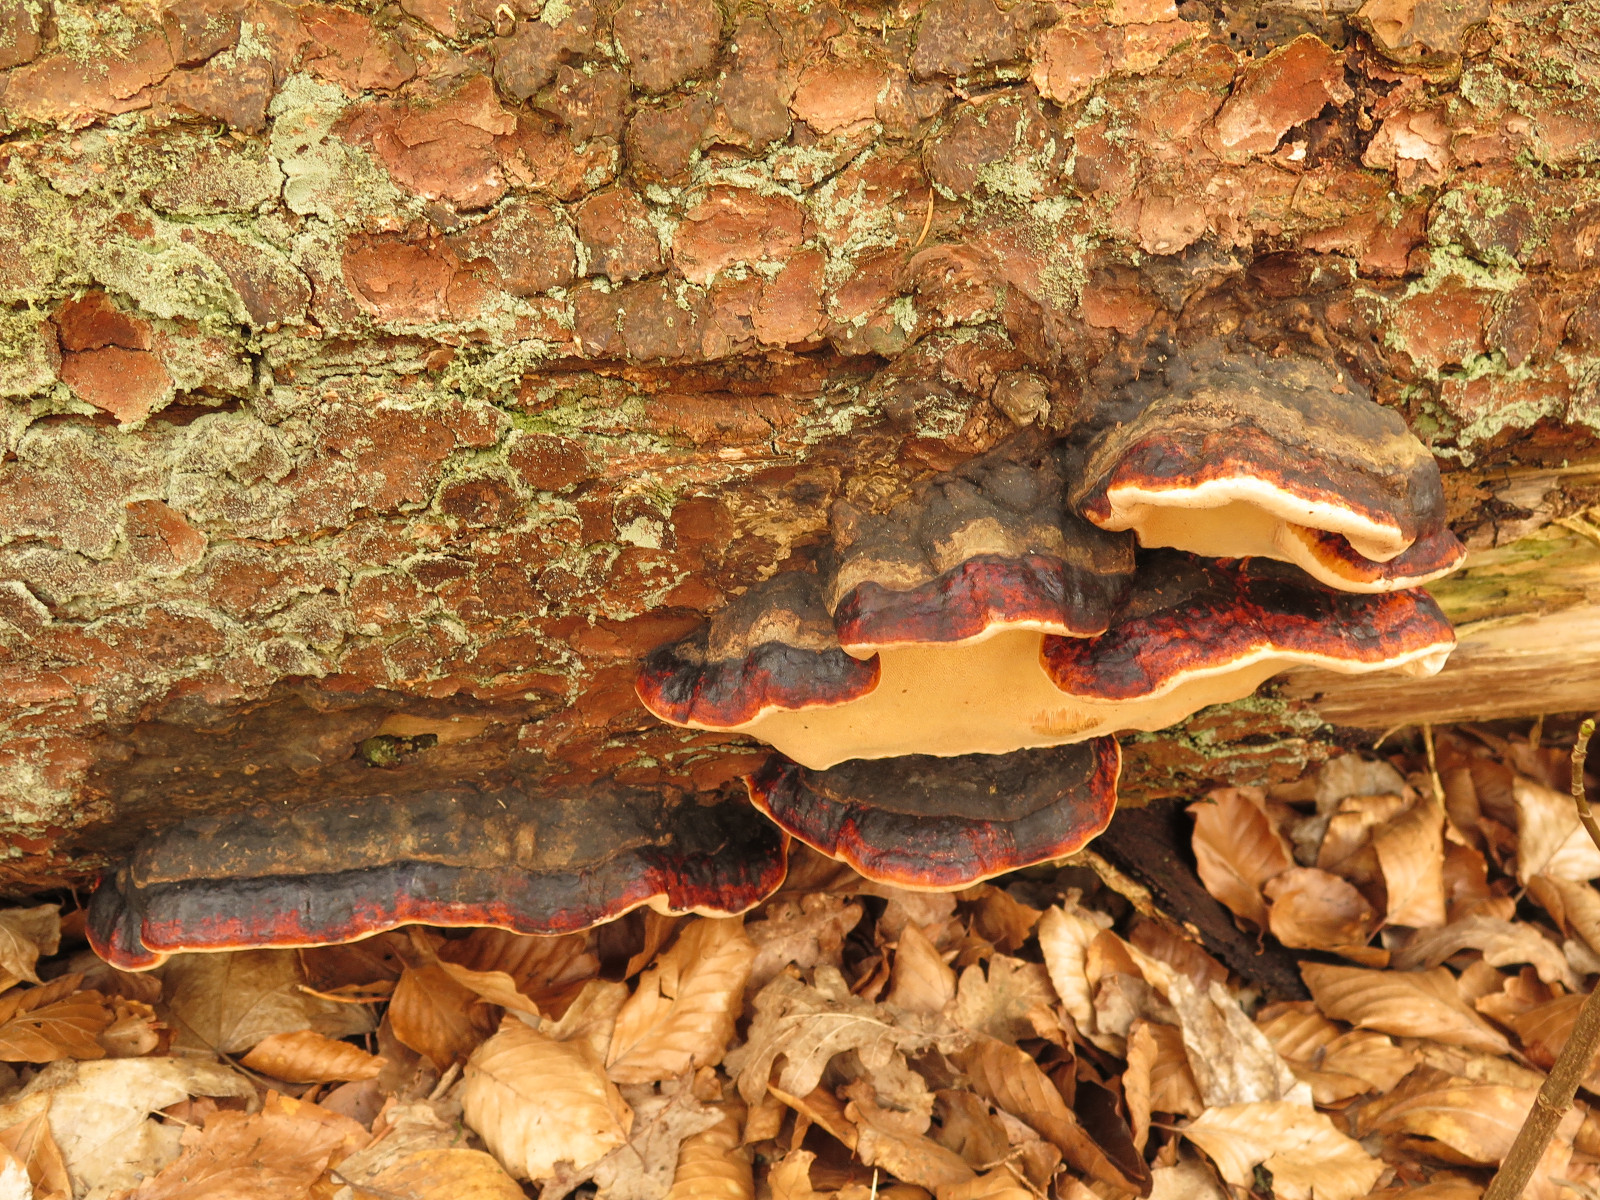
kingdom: Fungi
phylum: Basidiomycota
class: Agaricomycetes
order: Polyporales
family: Fomitopsidaceae
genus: Fomitopsis
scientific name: Fomitopsis pinicola
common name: randbæltet hovporesvamp
